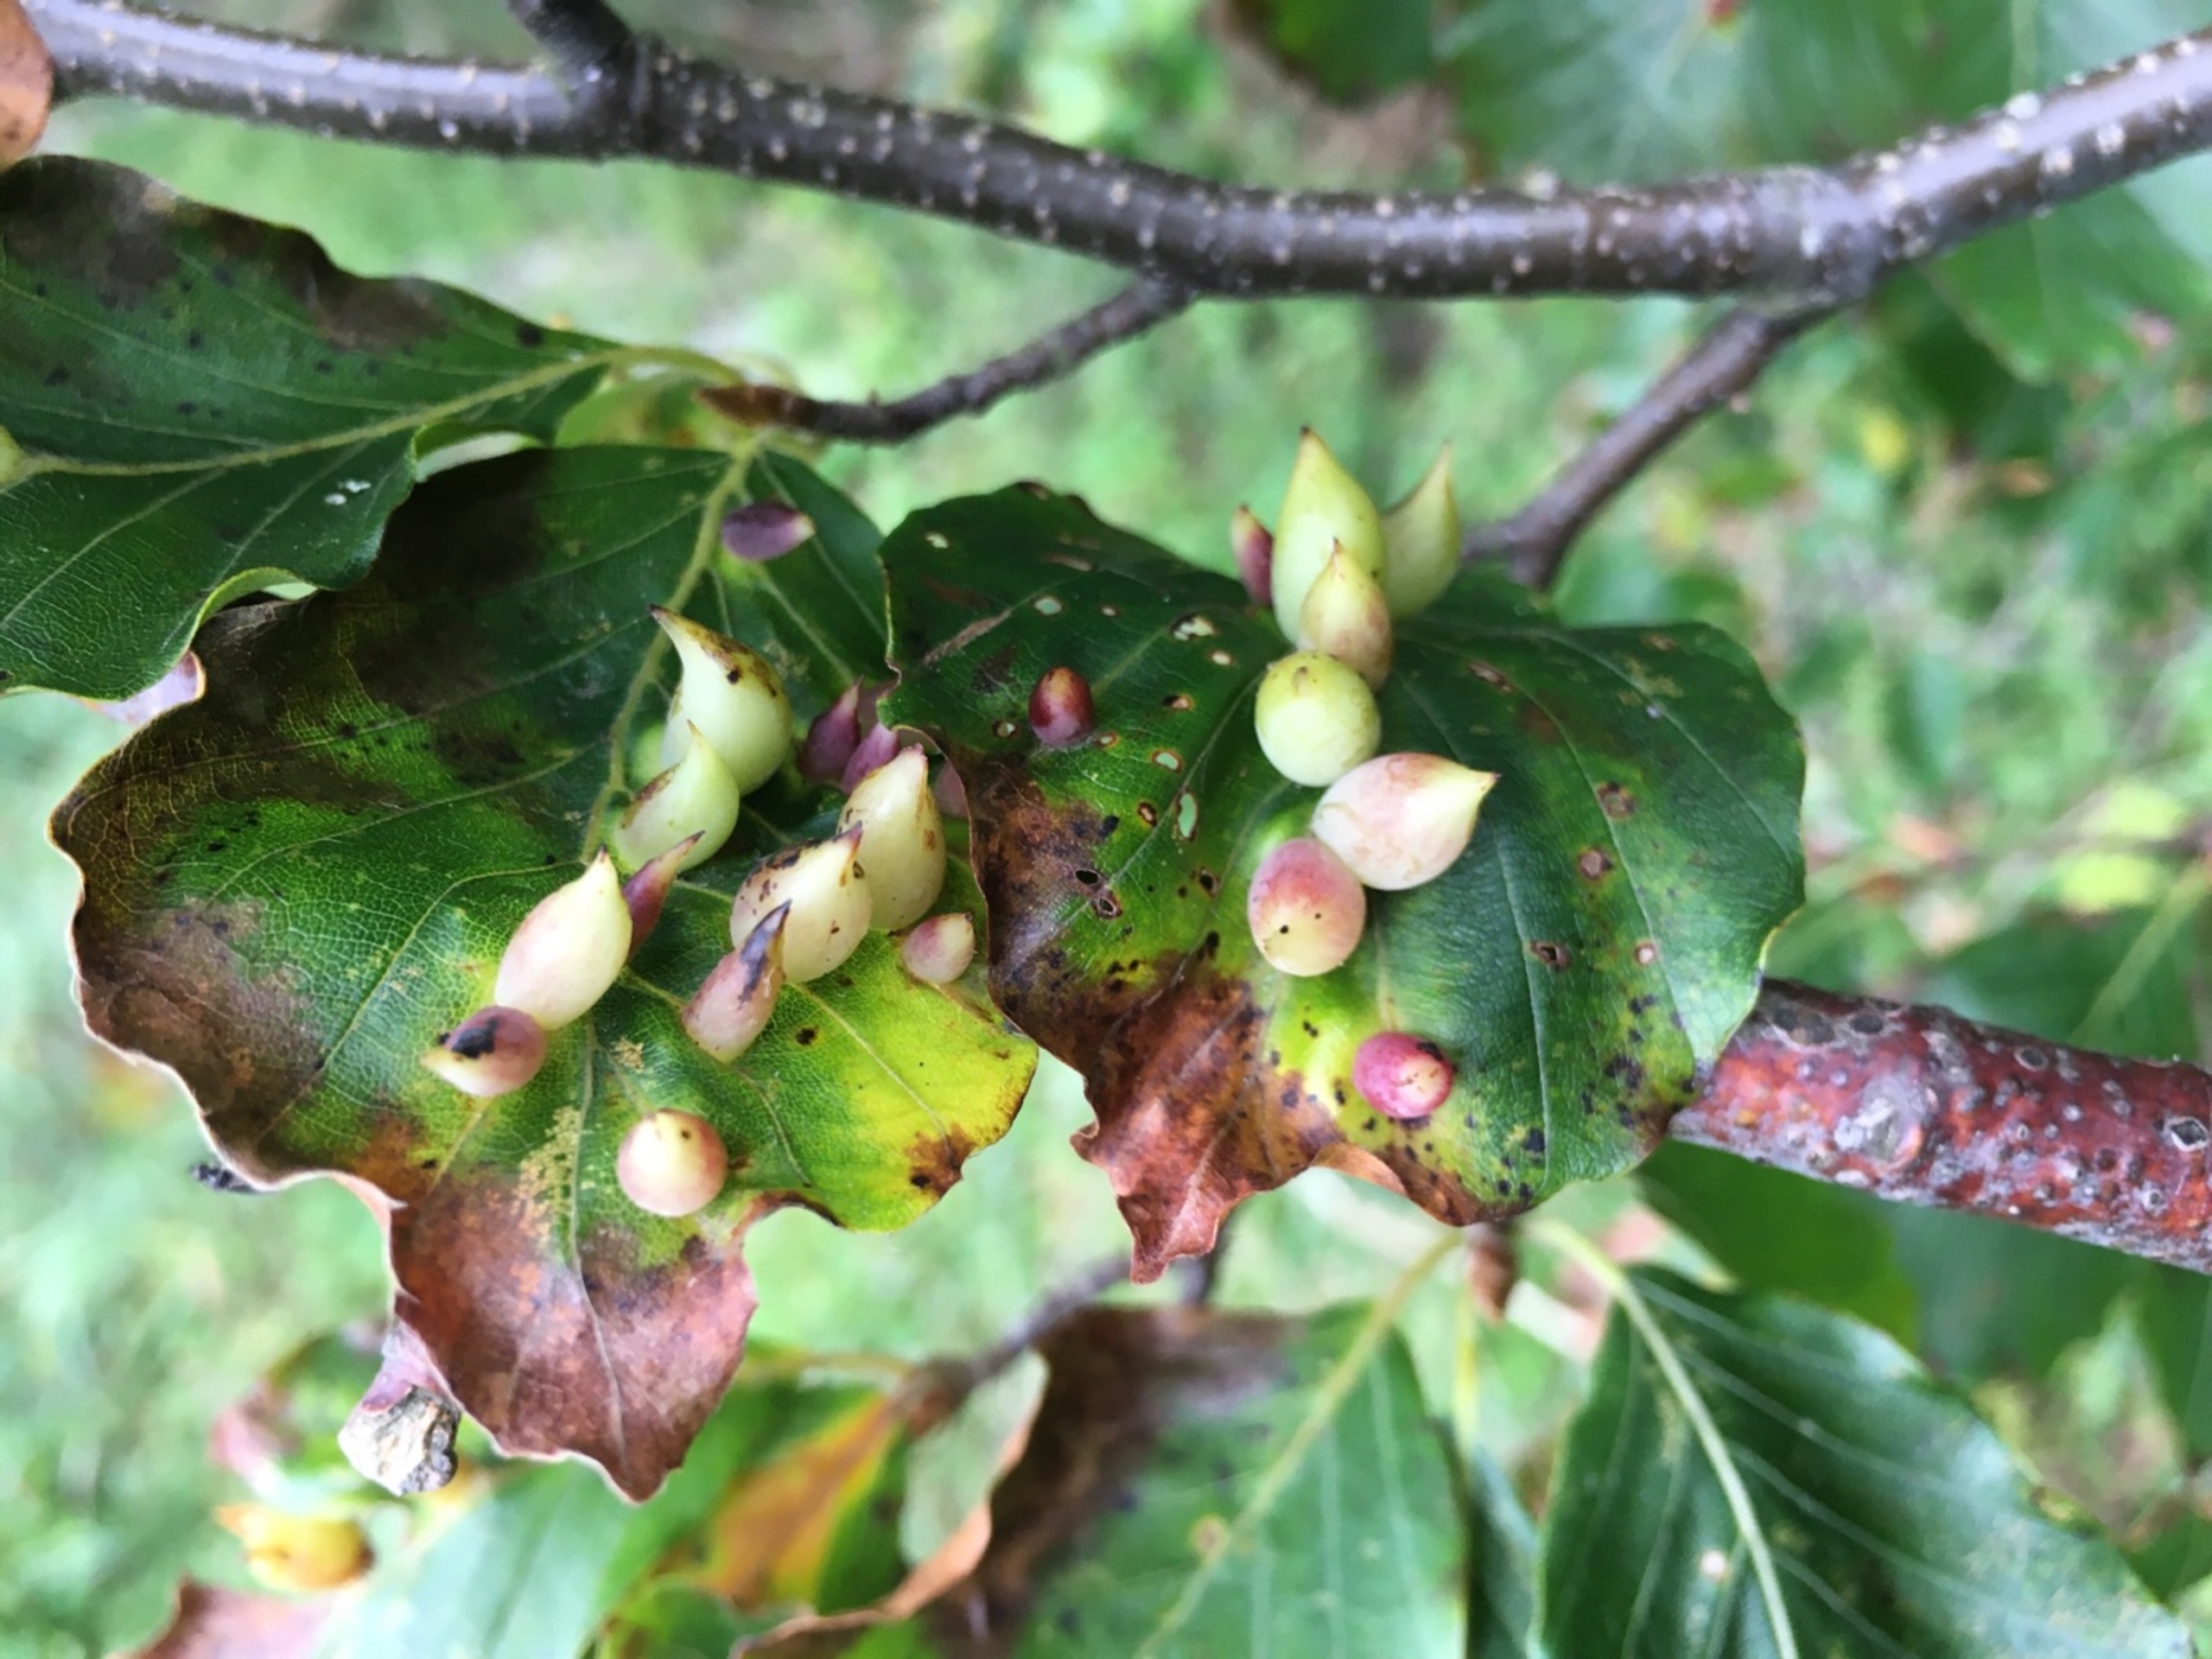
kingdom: Animalia
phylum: Arthropoda
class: Insecta
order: Diptera
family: Cecidomyiidae
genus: Mikiola
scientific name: Mikiola fagi
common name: Bøgegalmyg
